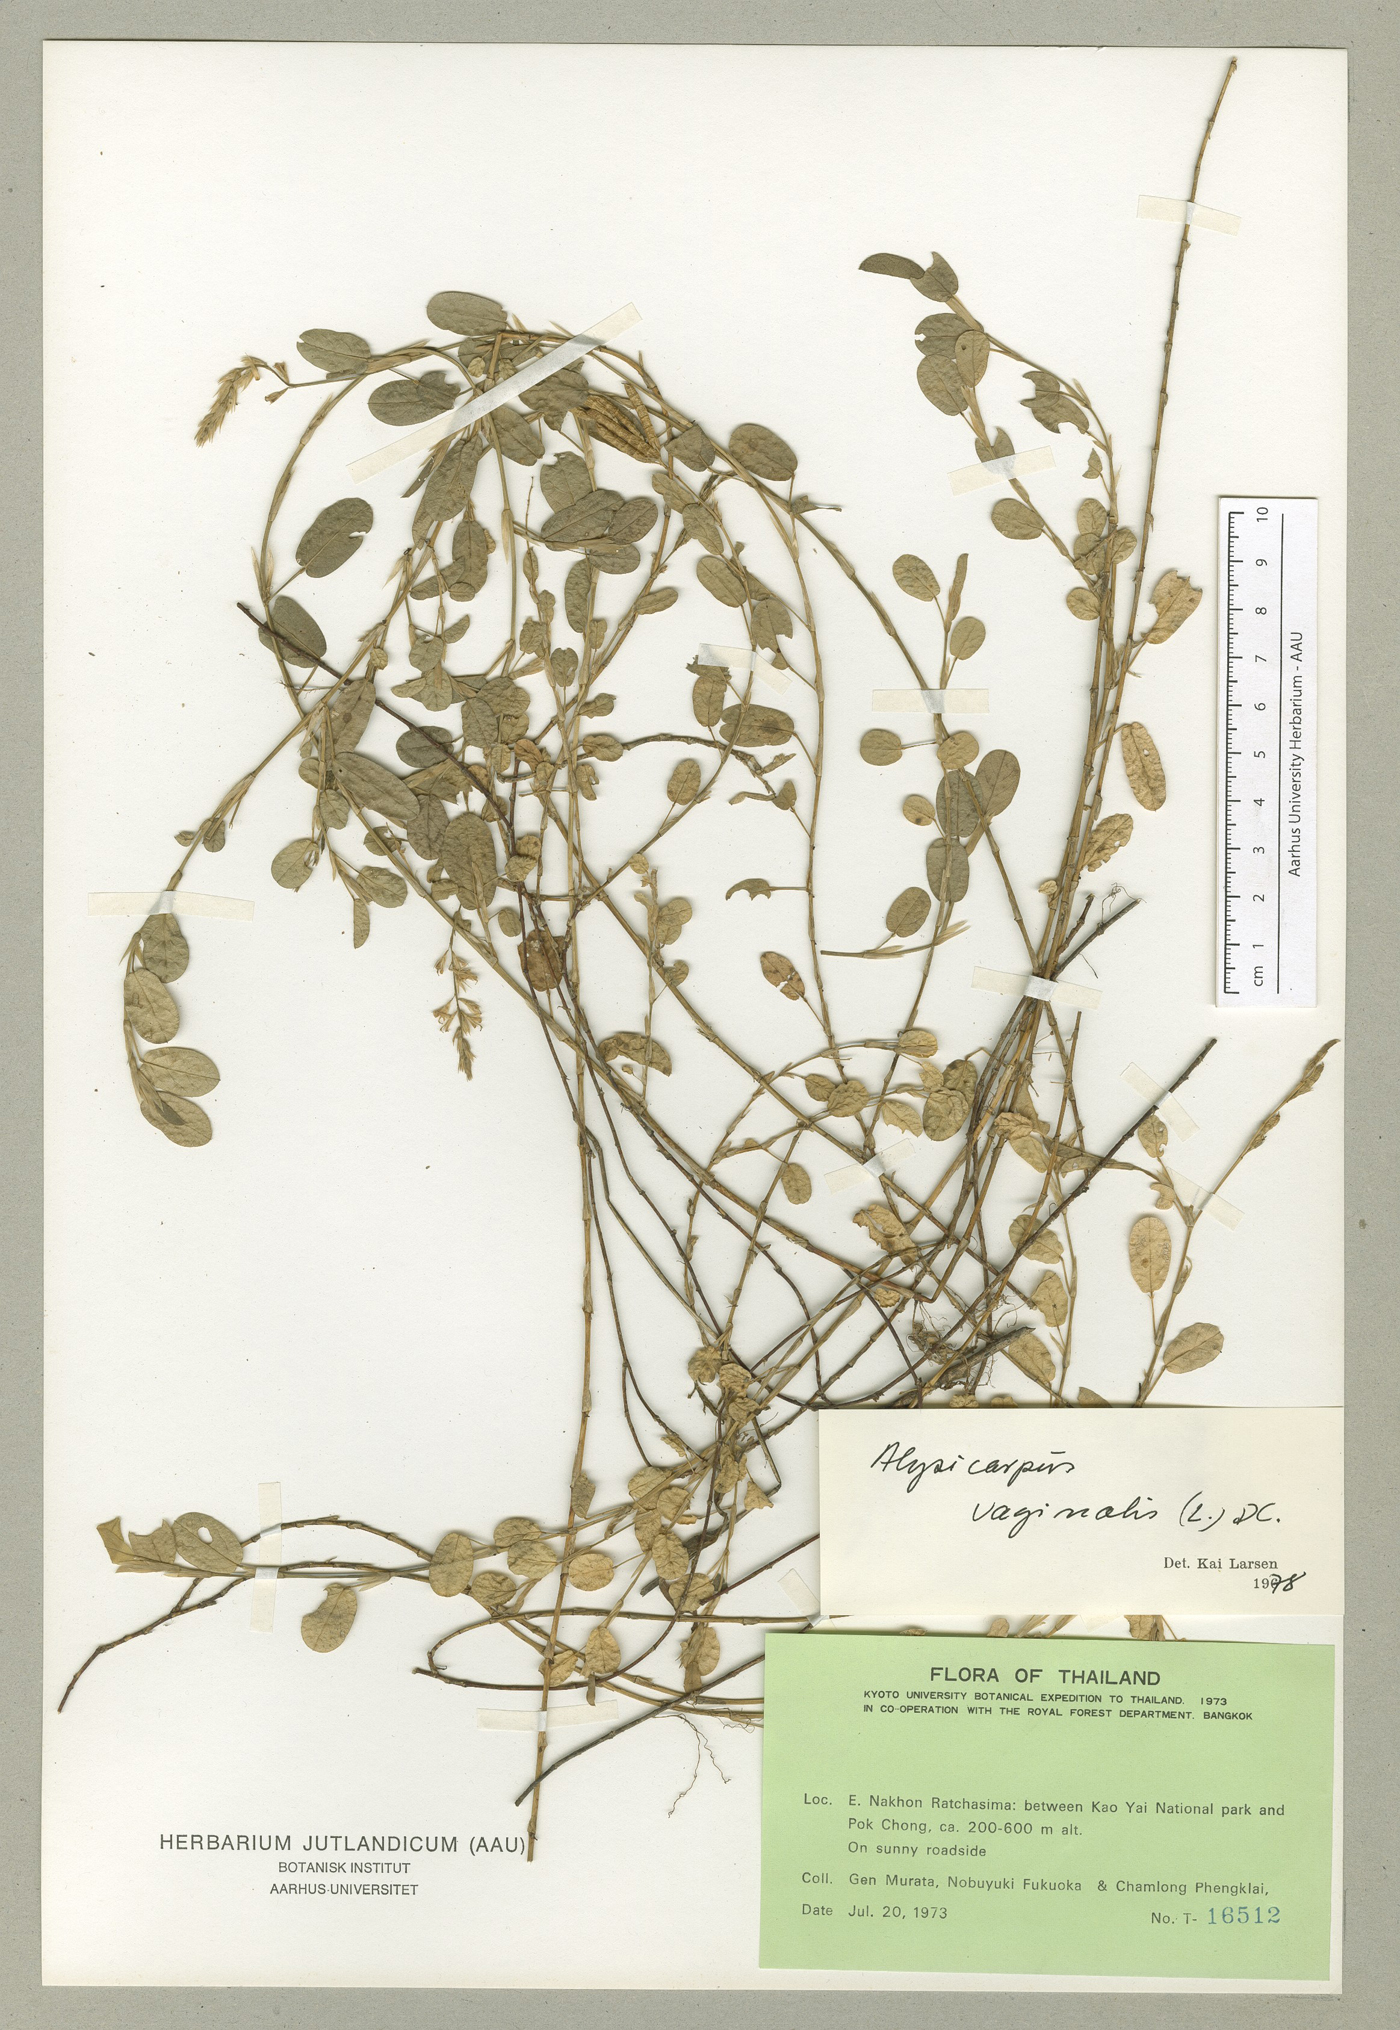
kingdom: Plantae
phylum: Tracheophyta
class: Magnoliopsida
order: Fabales
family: Fabaceae
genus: Alysicarpus
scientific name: Alysicarpus vaginalis
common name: White moneywort
